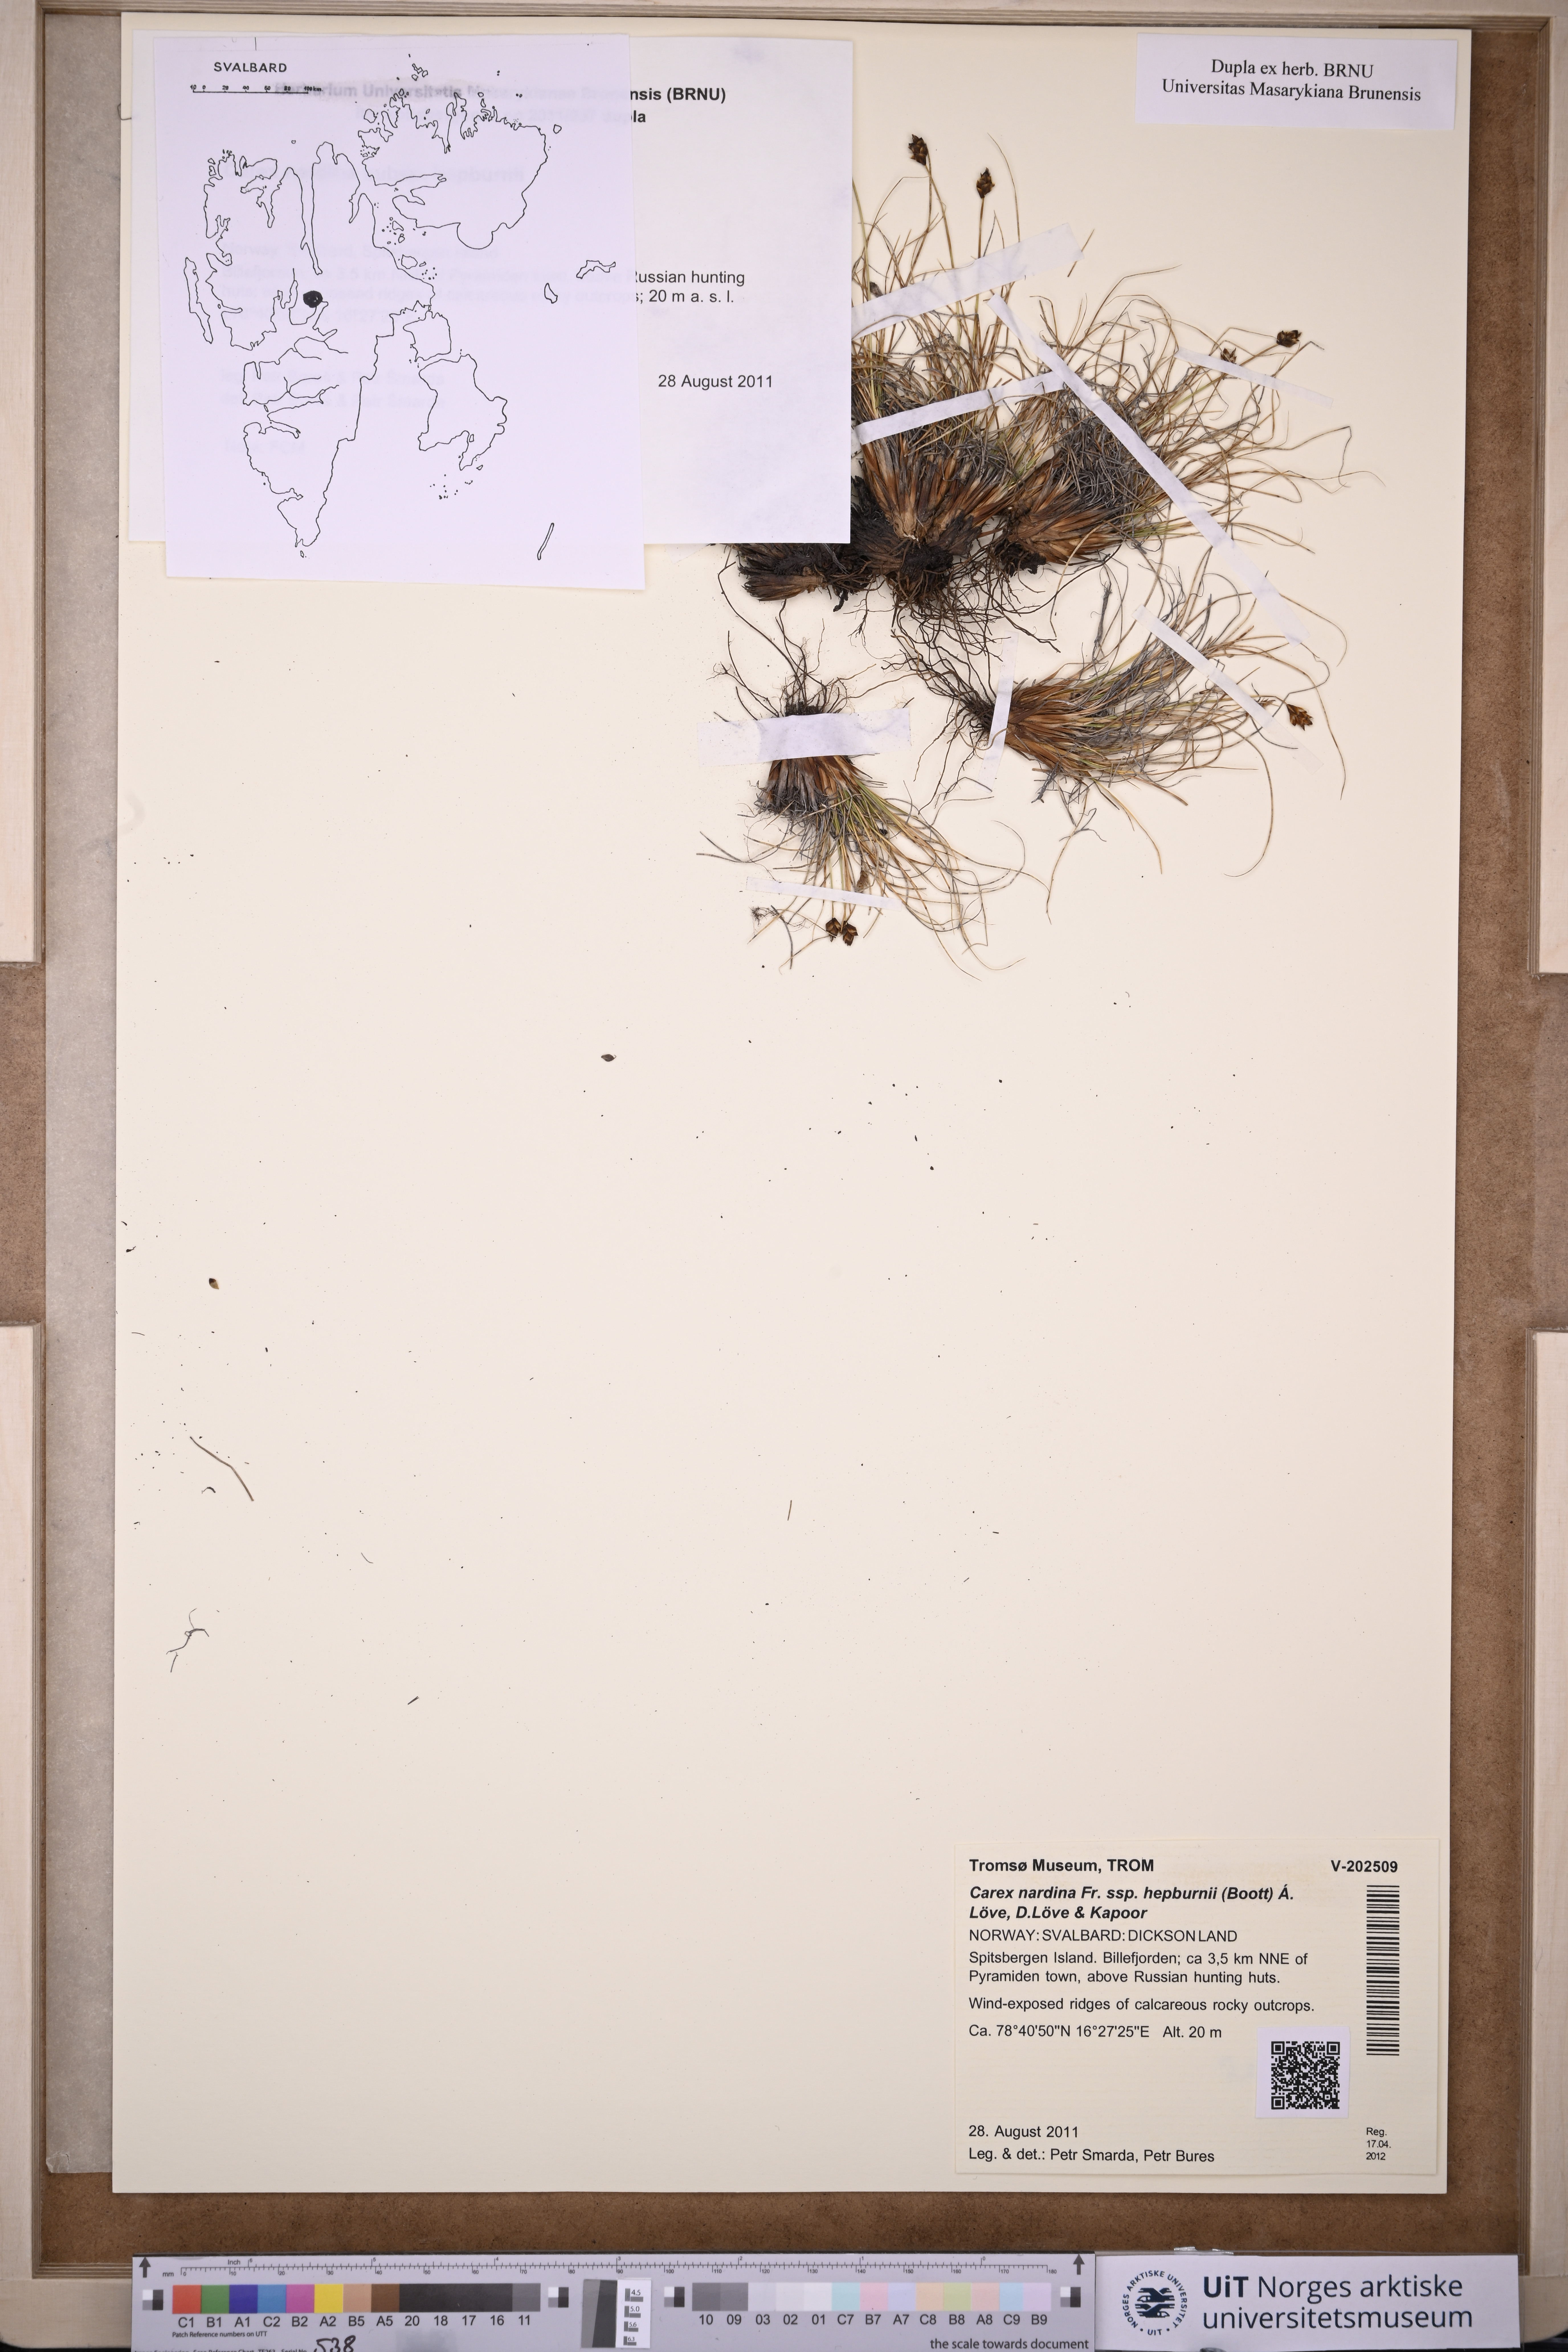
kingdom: Plantae
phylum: Tracheophyta
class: Liliopsida
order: Poales
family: Cyperaceae
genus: Carex
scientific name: Carex nardina
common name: Nard sedge
